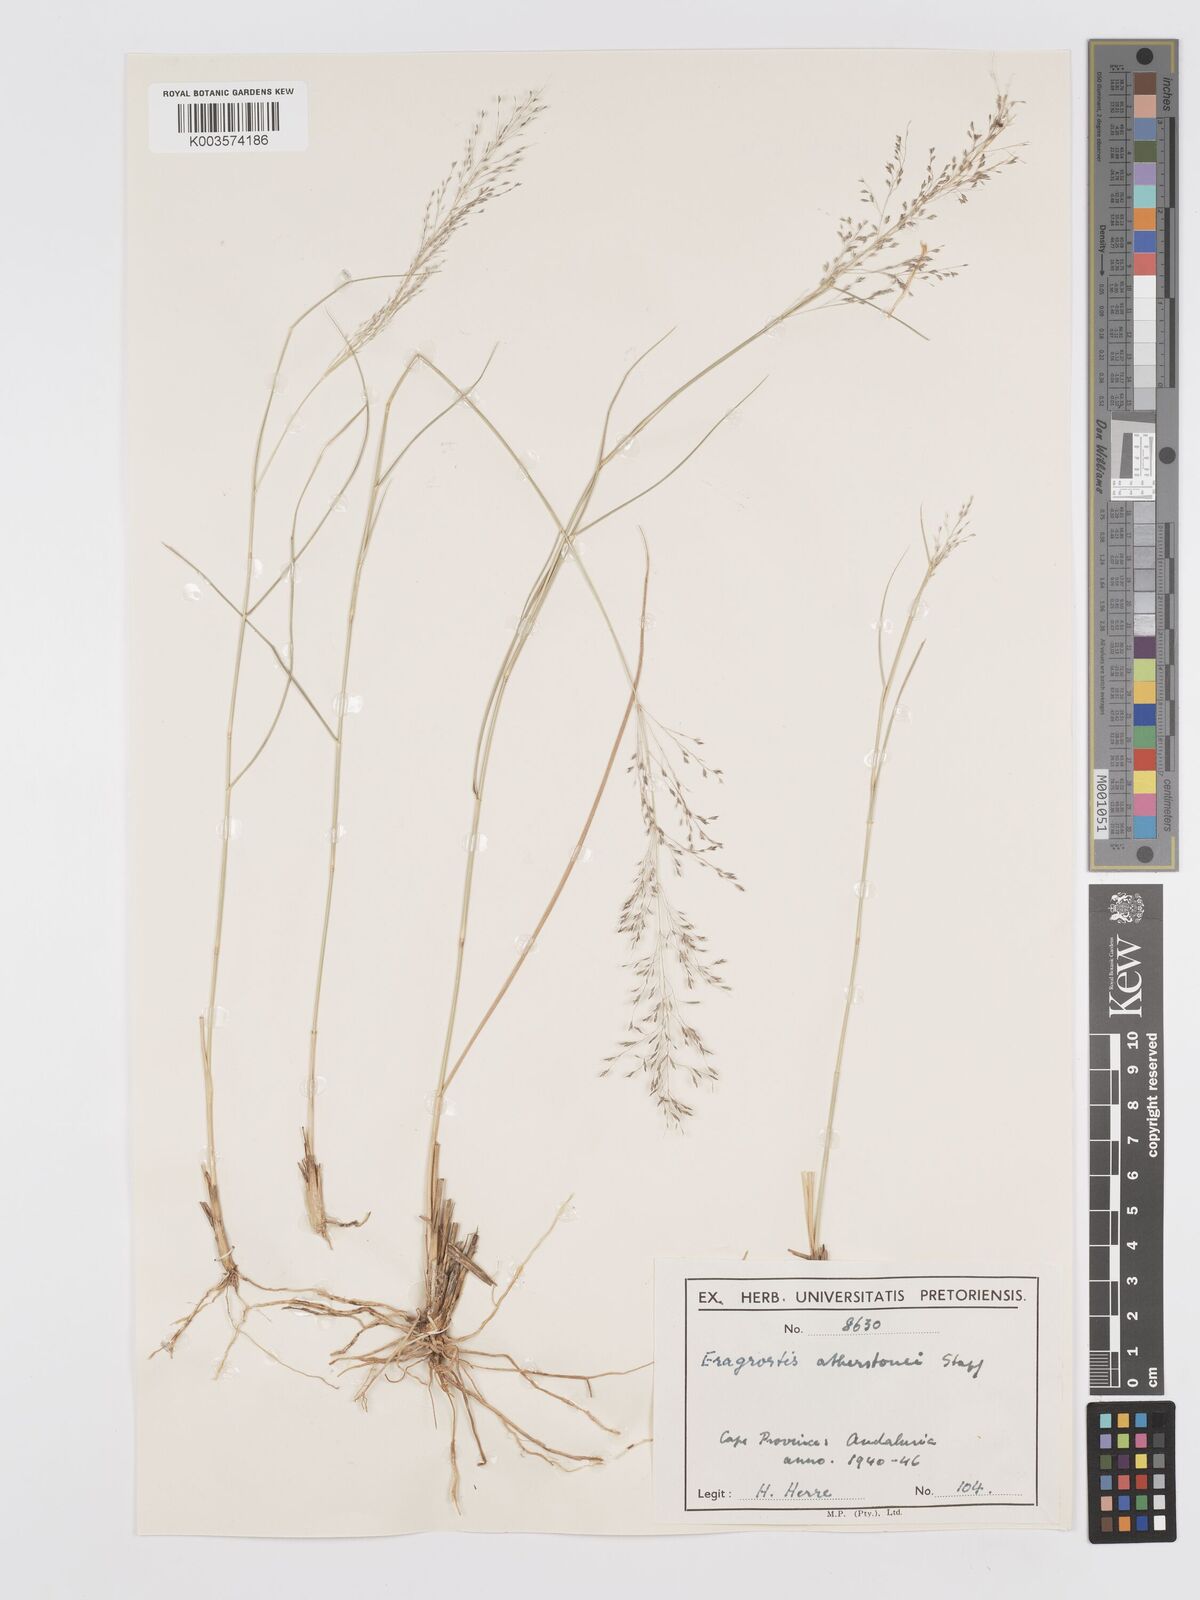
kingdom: Plantae
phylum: Tracheophyta
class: Liliopsida
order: Poales
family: Poaceae
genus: Eragrostis
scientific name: Eragrostis cylindriflora
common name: Cylinderflower lovegrass
